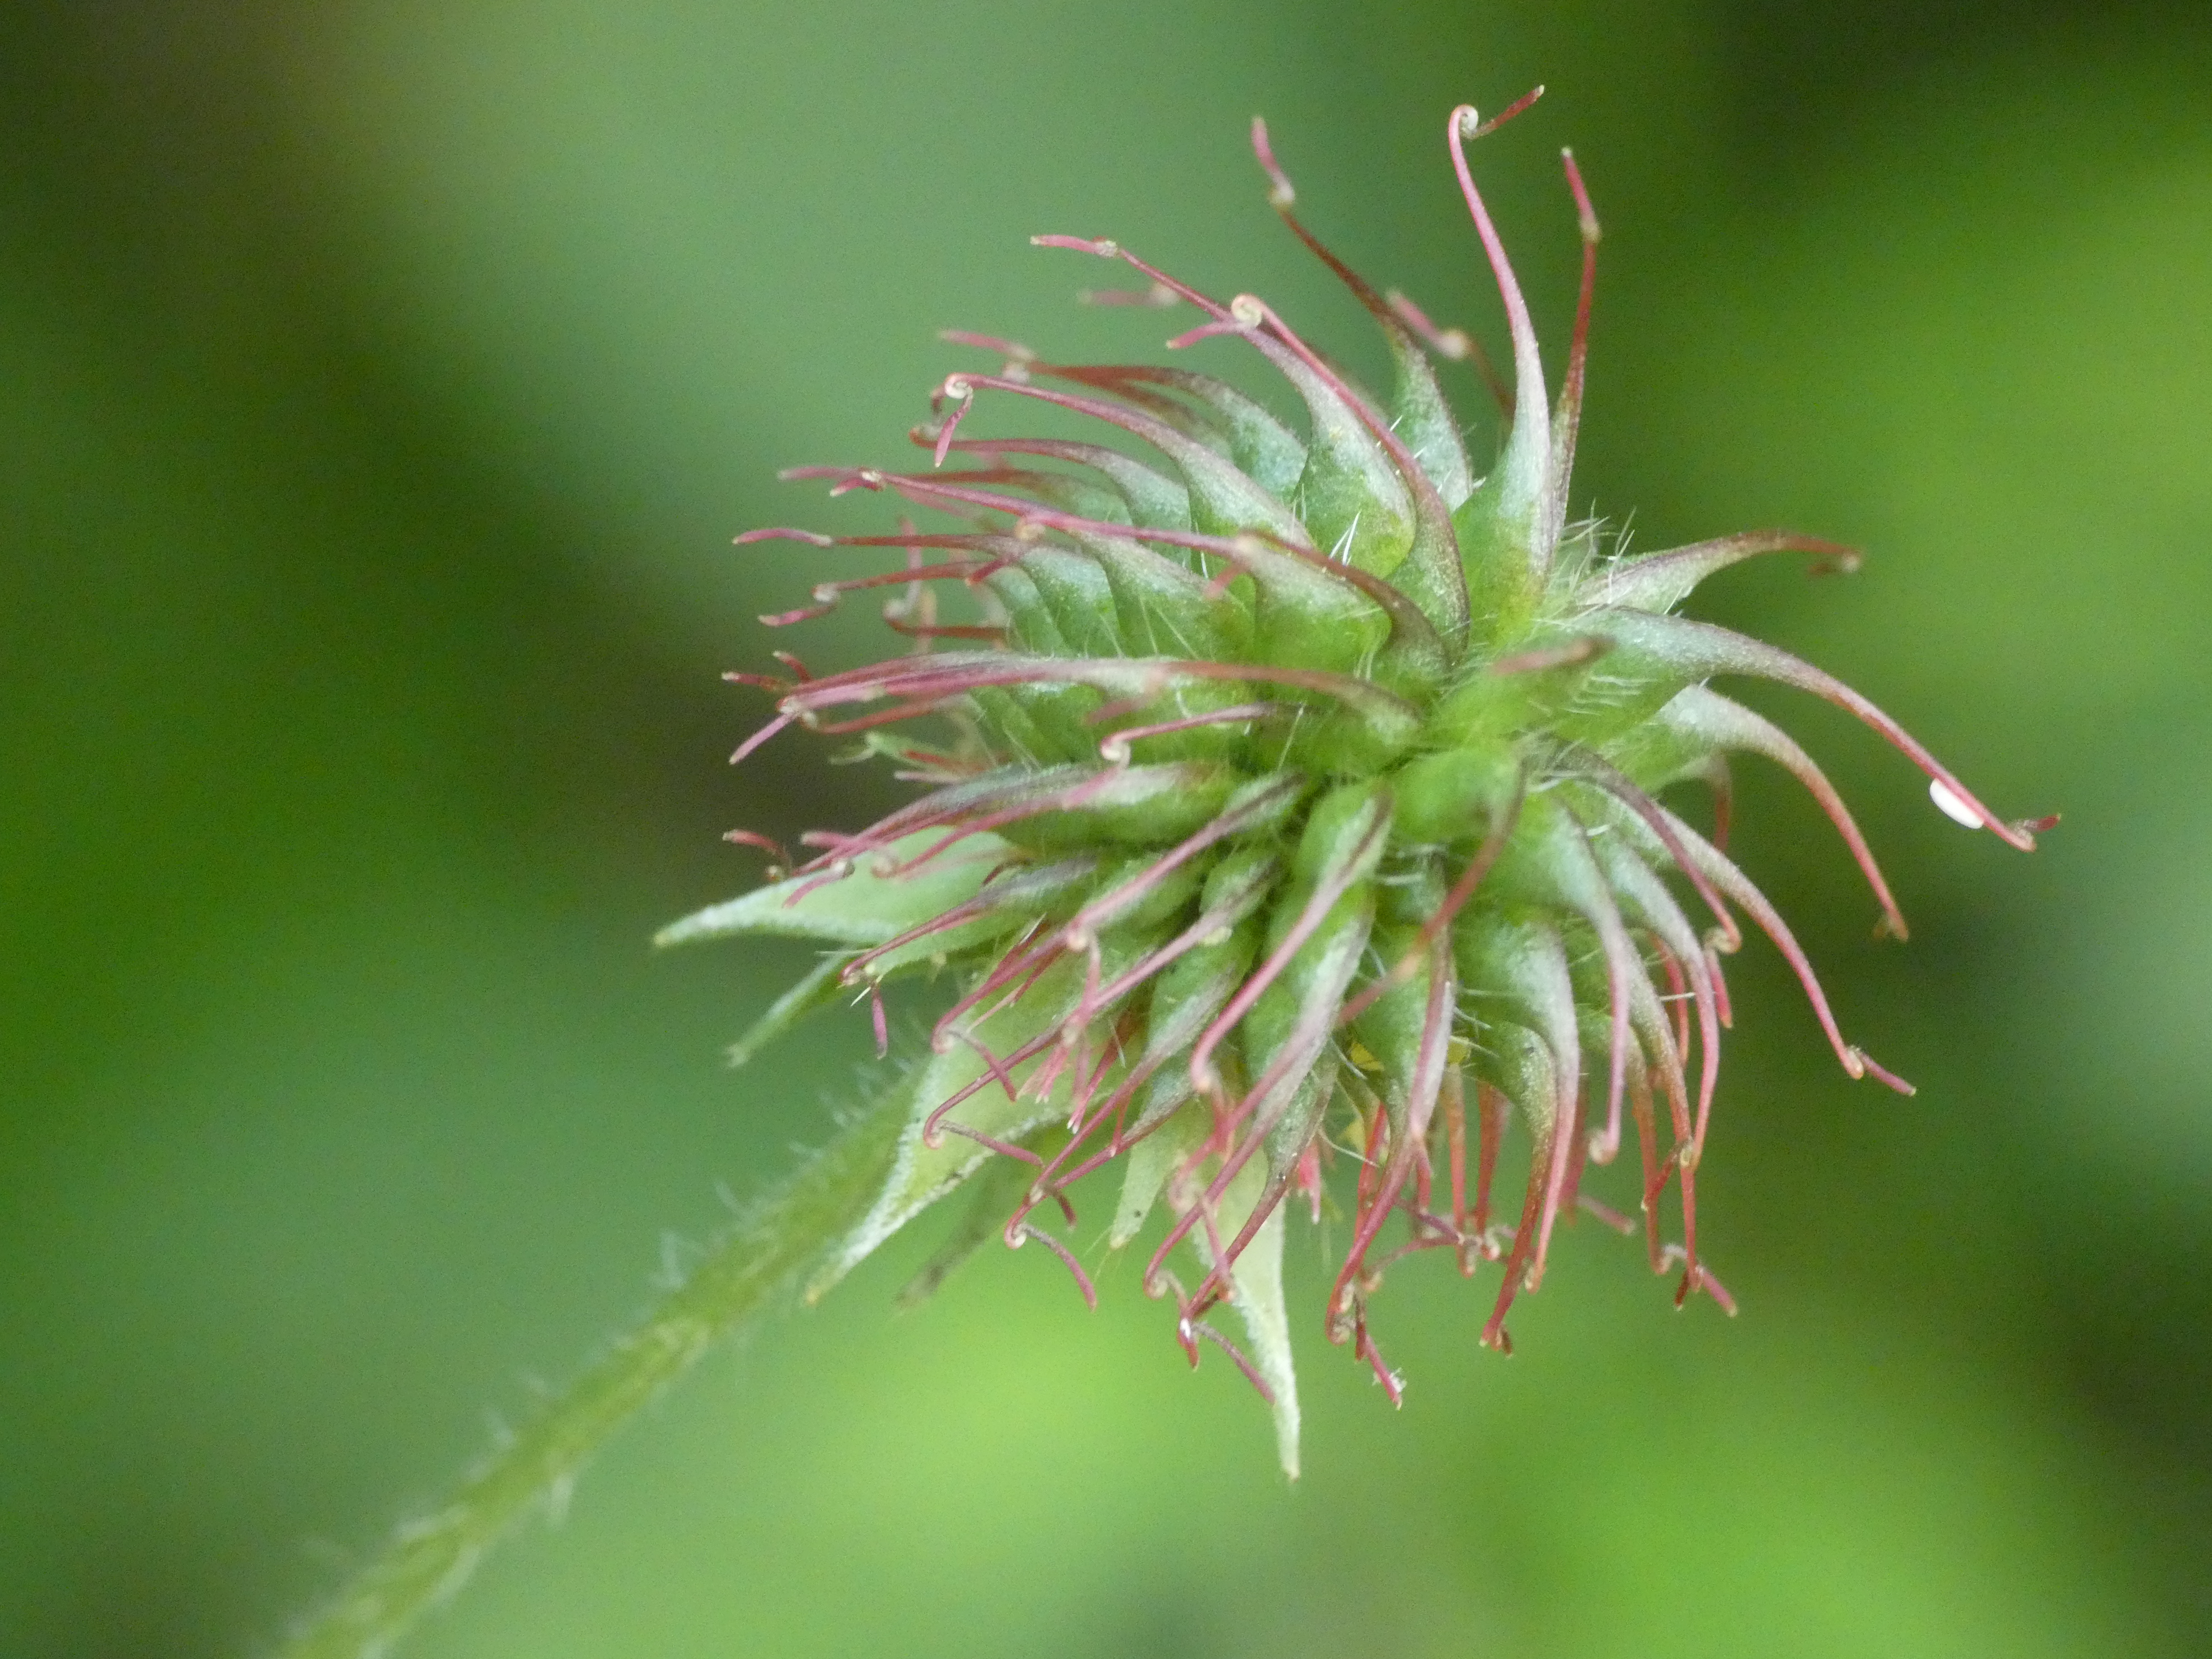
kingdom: Plantae
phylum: Tracheophyta
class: Magnoliopsida
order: Rosales
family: Rosaceae
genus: Geum
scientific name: Geum urbanum
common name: Feber-nellikerod
